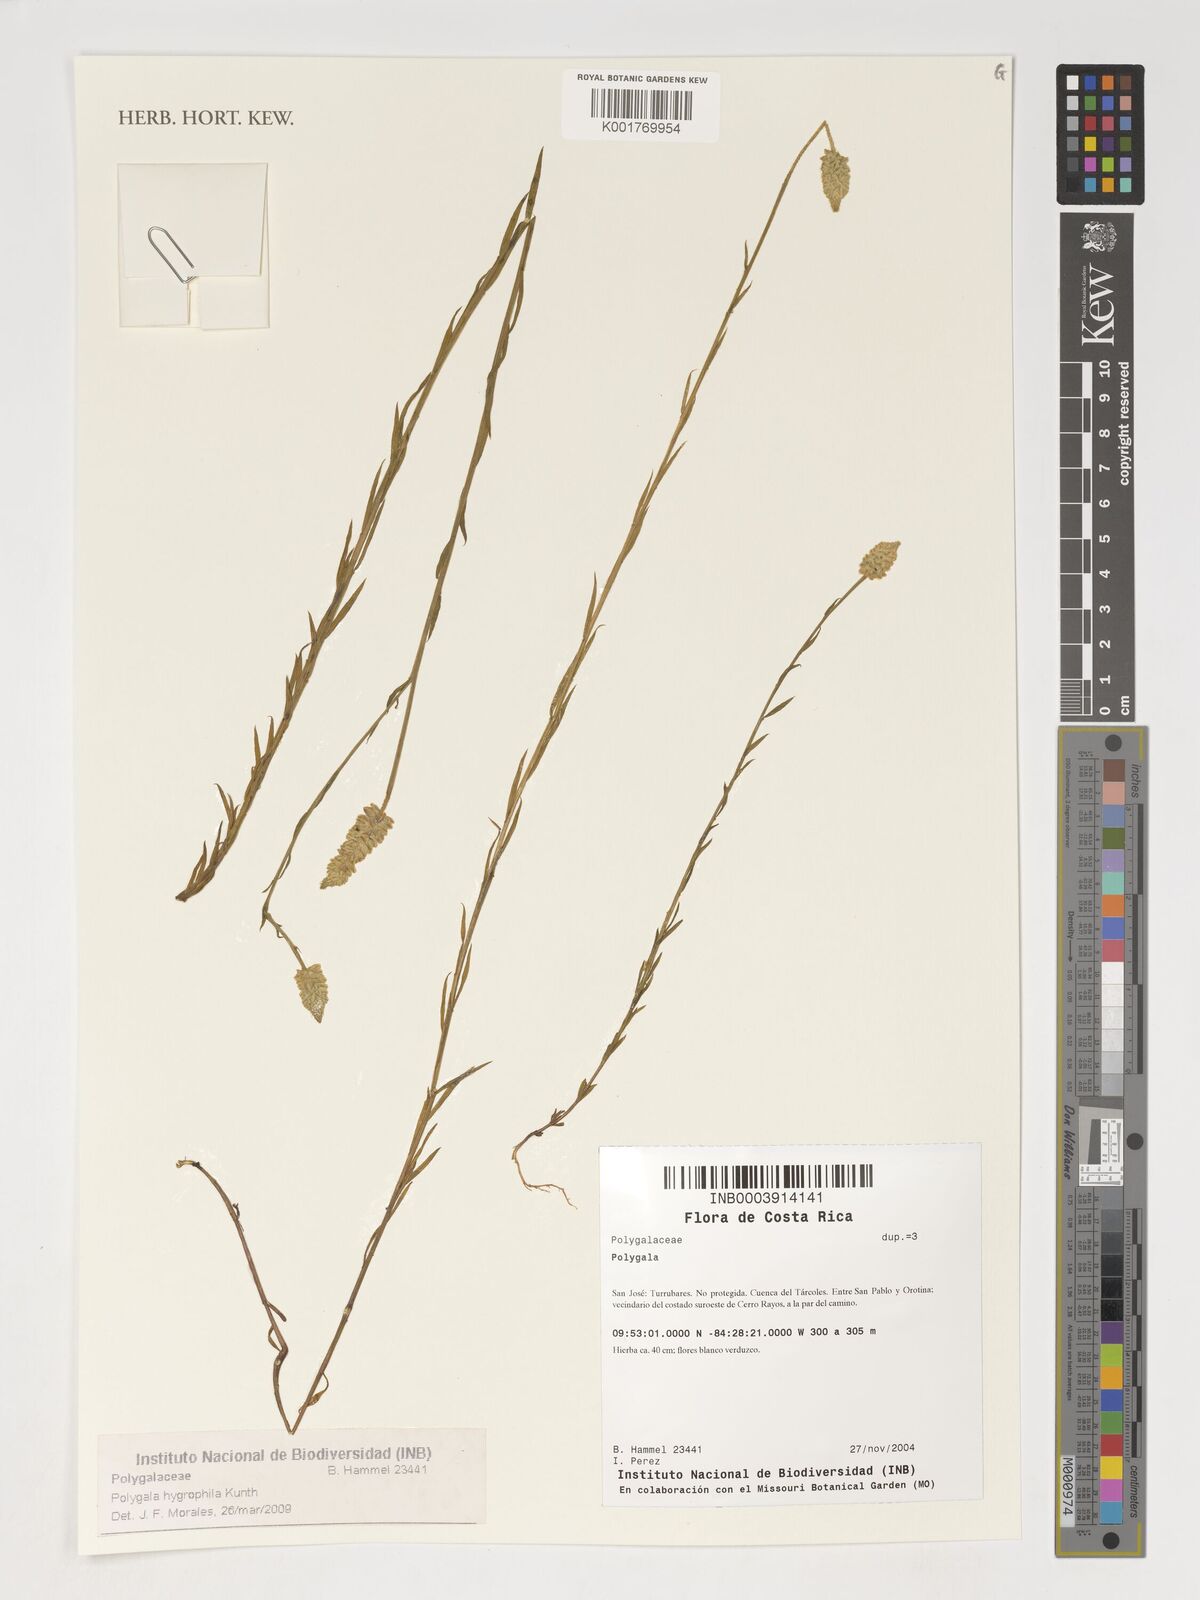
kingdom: Plantae
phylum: Tracheophyta
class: Magnoliopsida
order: Fabales
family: Polygalaceae
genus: Polygala
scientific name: Polygala hygrophila
